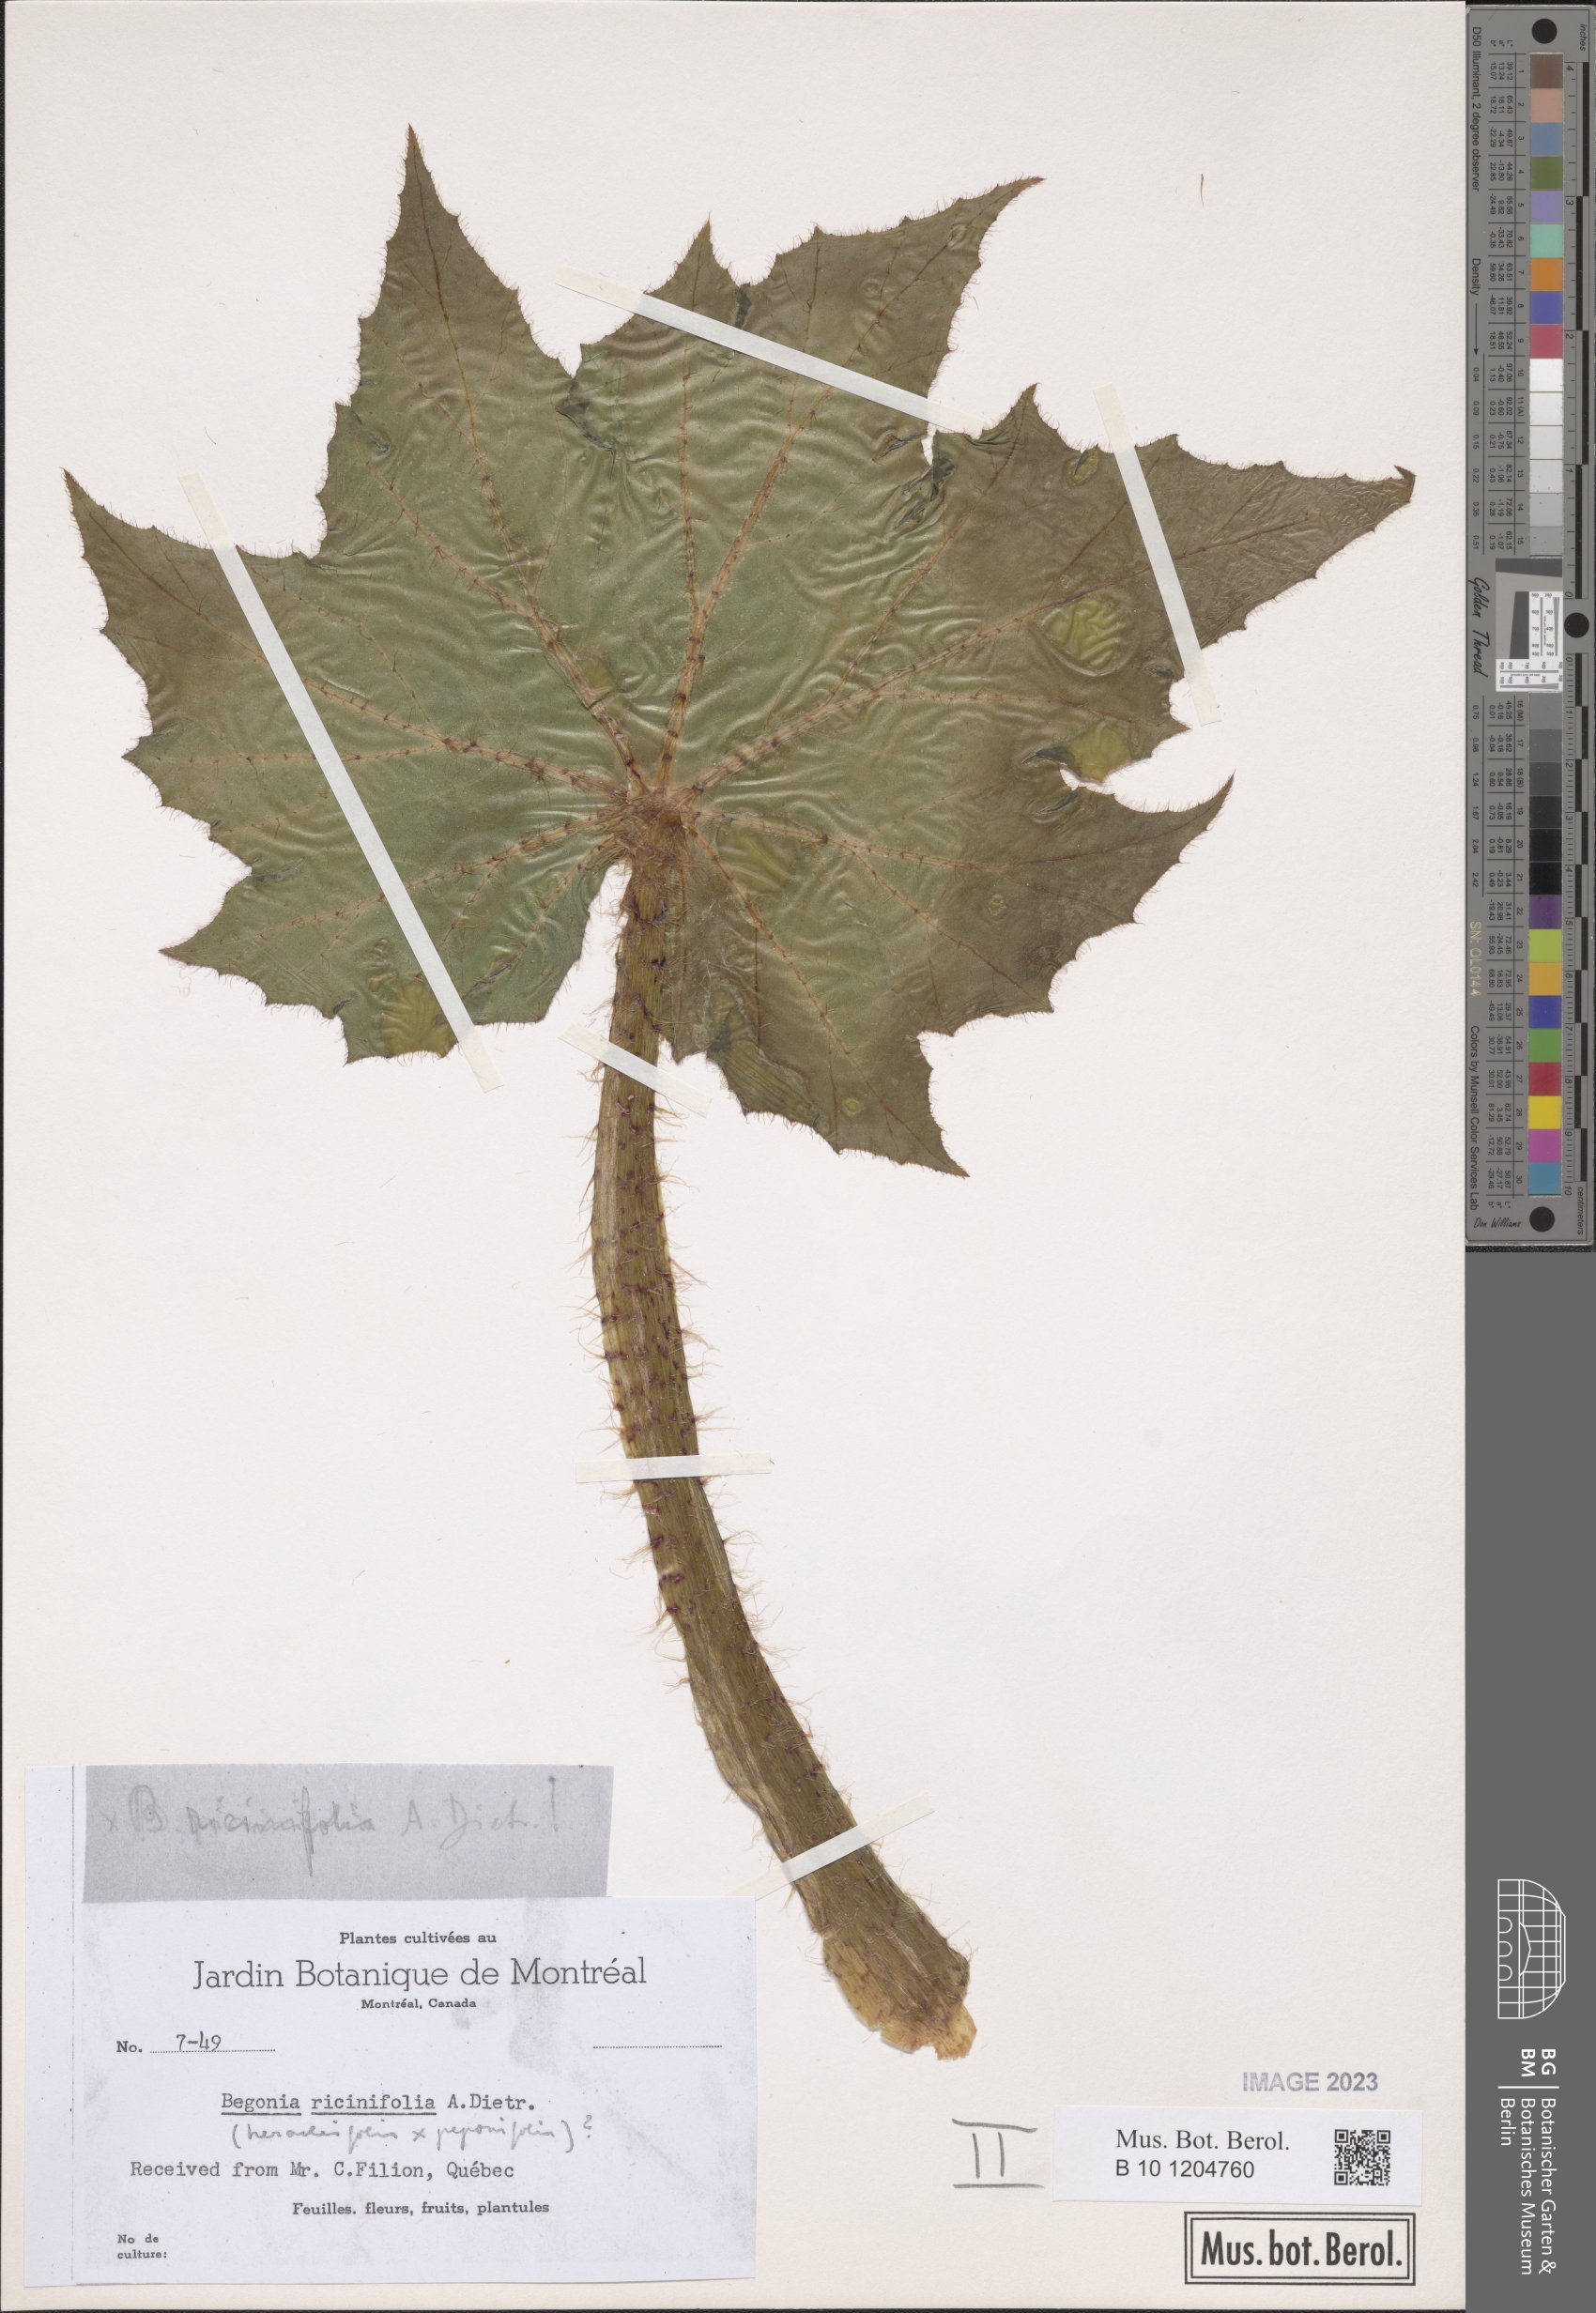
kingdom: Plantae
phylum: Tracheophyta
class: Magnoliopsida
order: Cucurbitales
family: Begoniaceae
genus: Begonia
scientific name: Begonia ricinifolia
